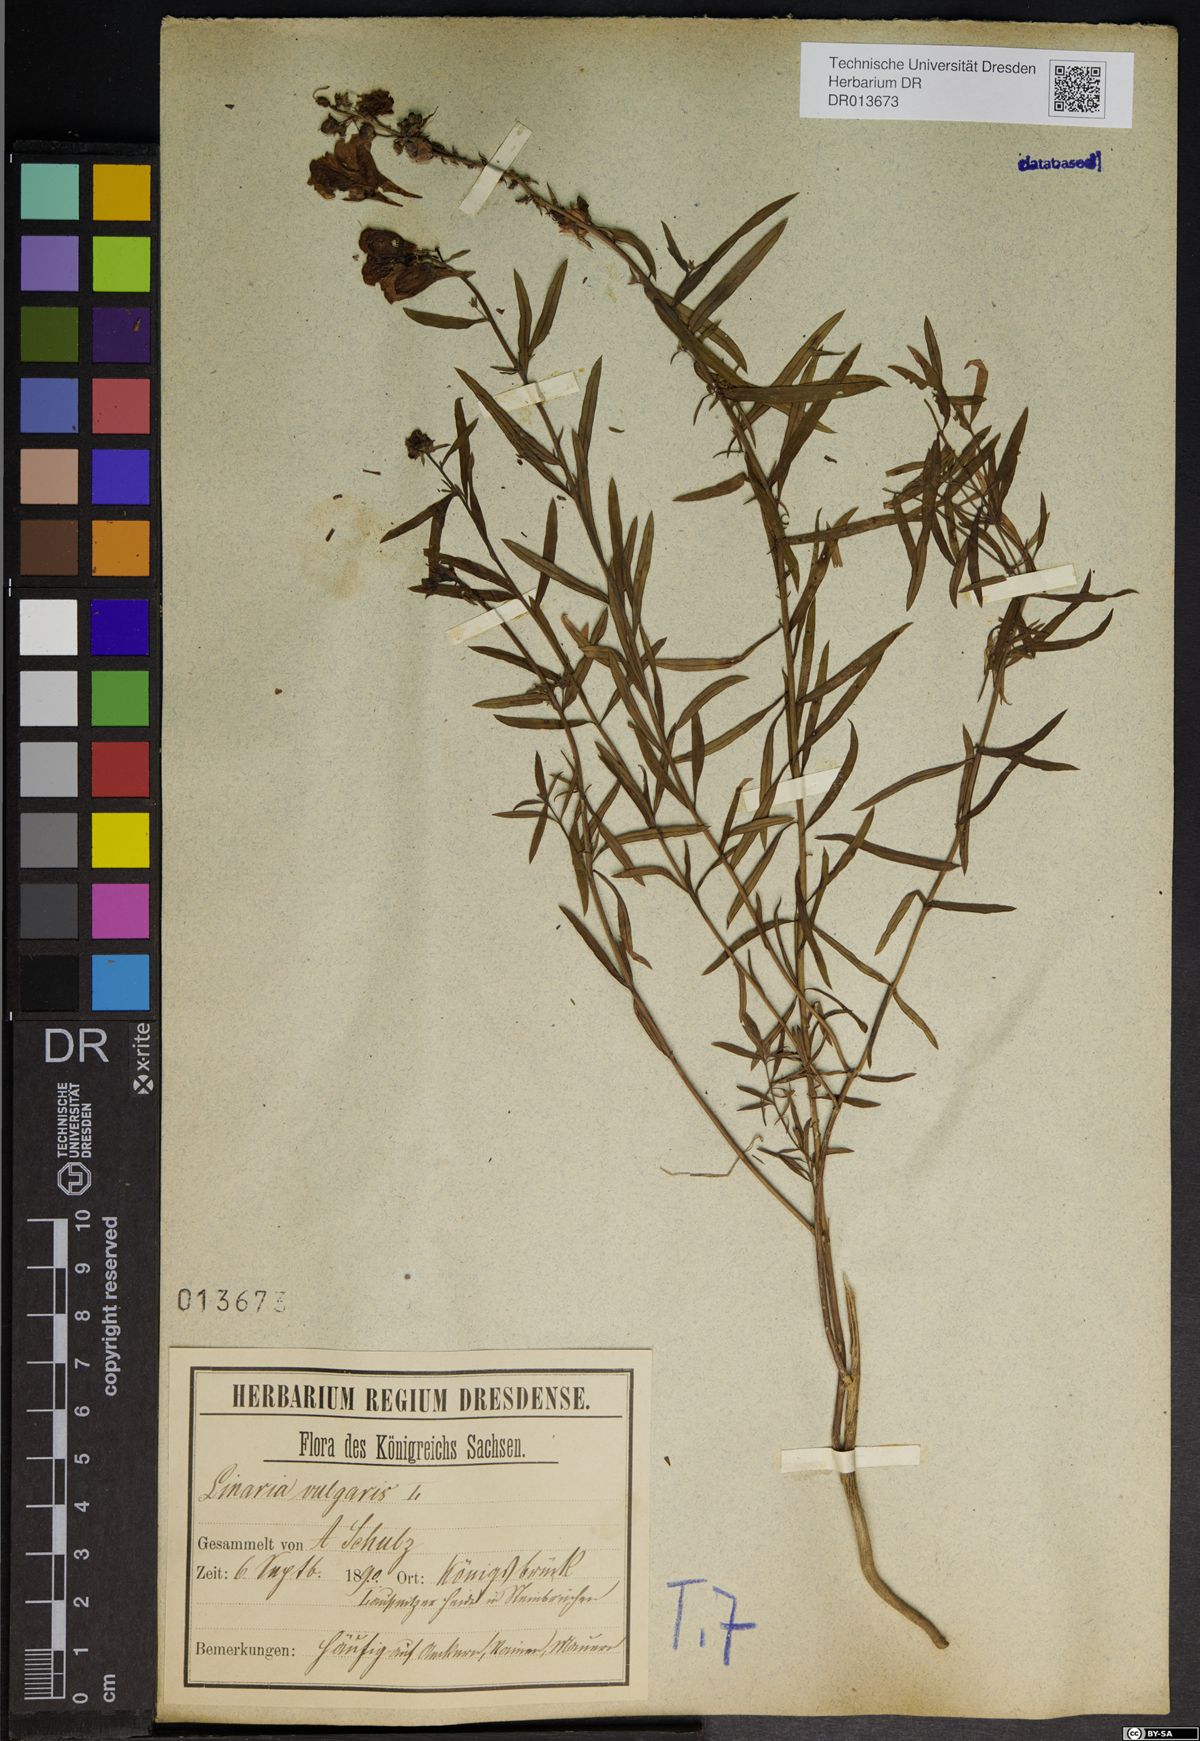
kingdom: Plantae
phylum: Tracheophyta
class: Magnoliopsida
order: Lamiales
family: Plantaginaceae
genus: Linaria
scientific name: Linaria vulgaris
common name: Butter and eggs
